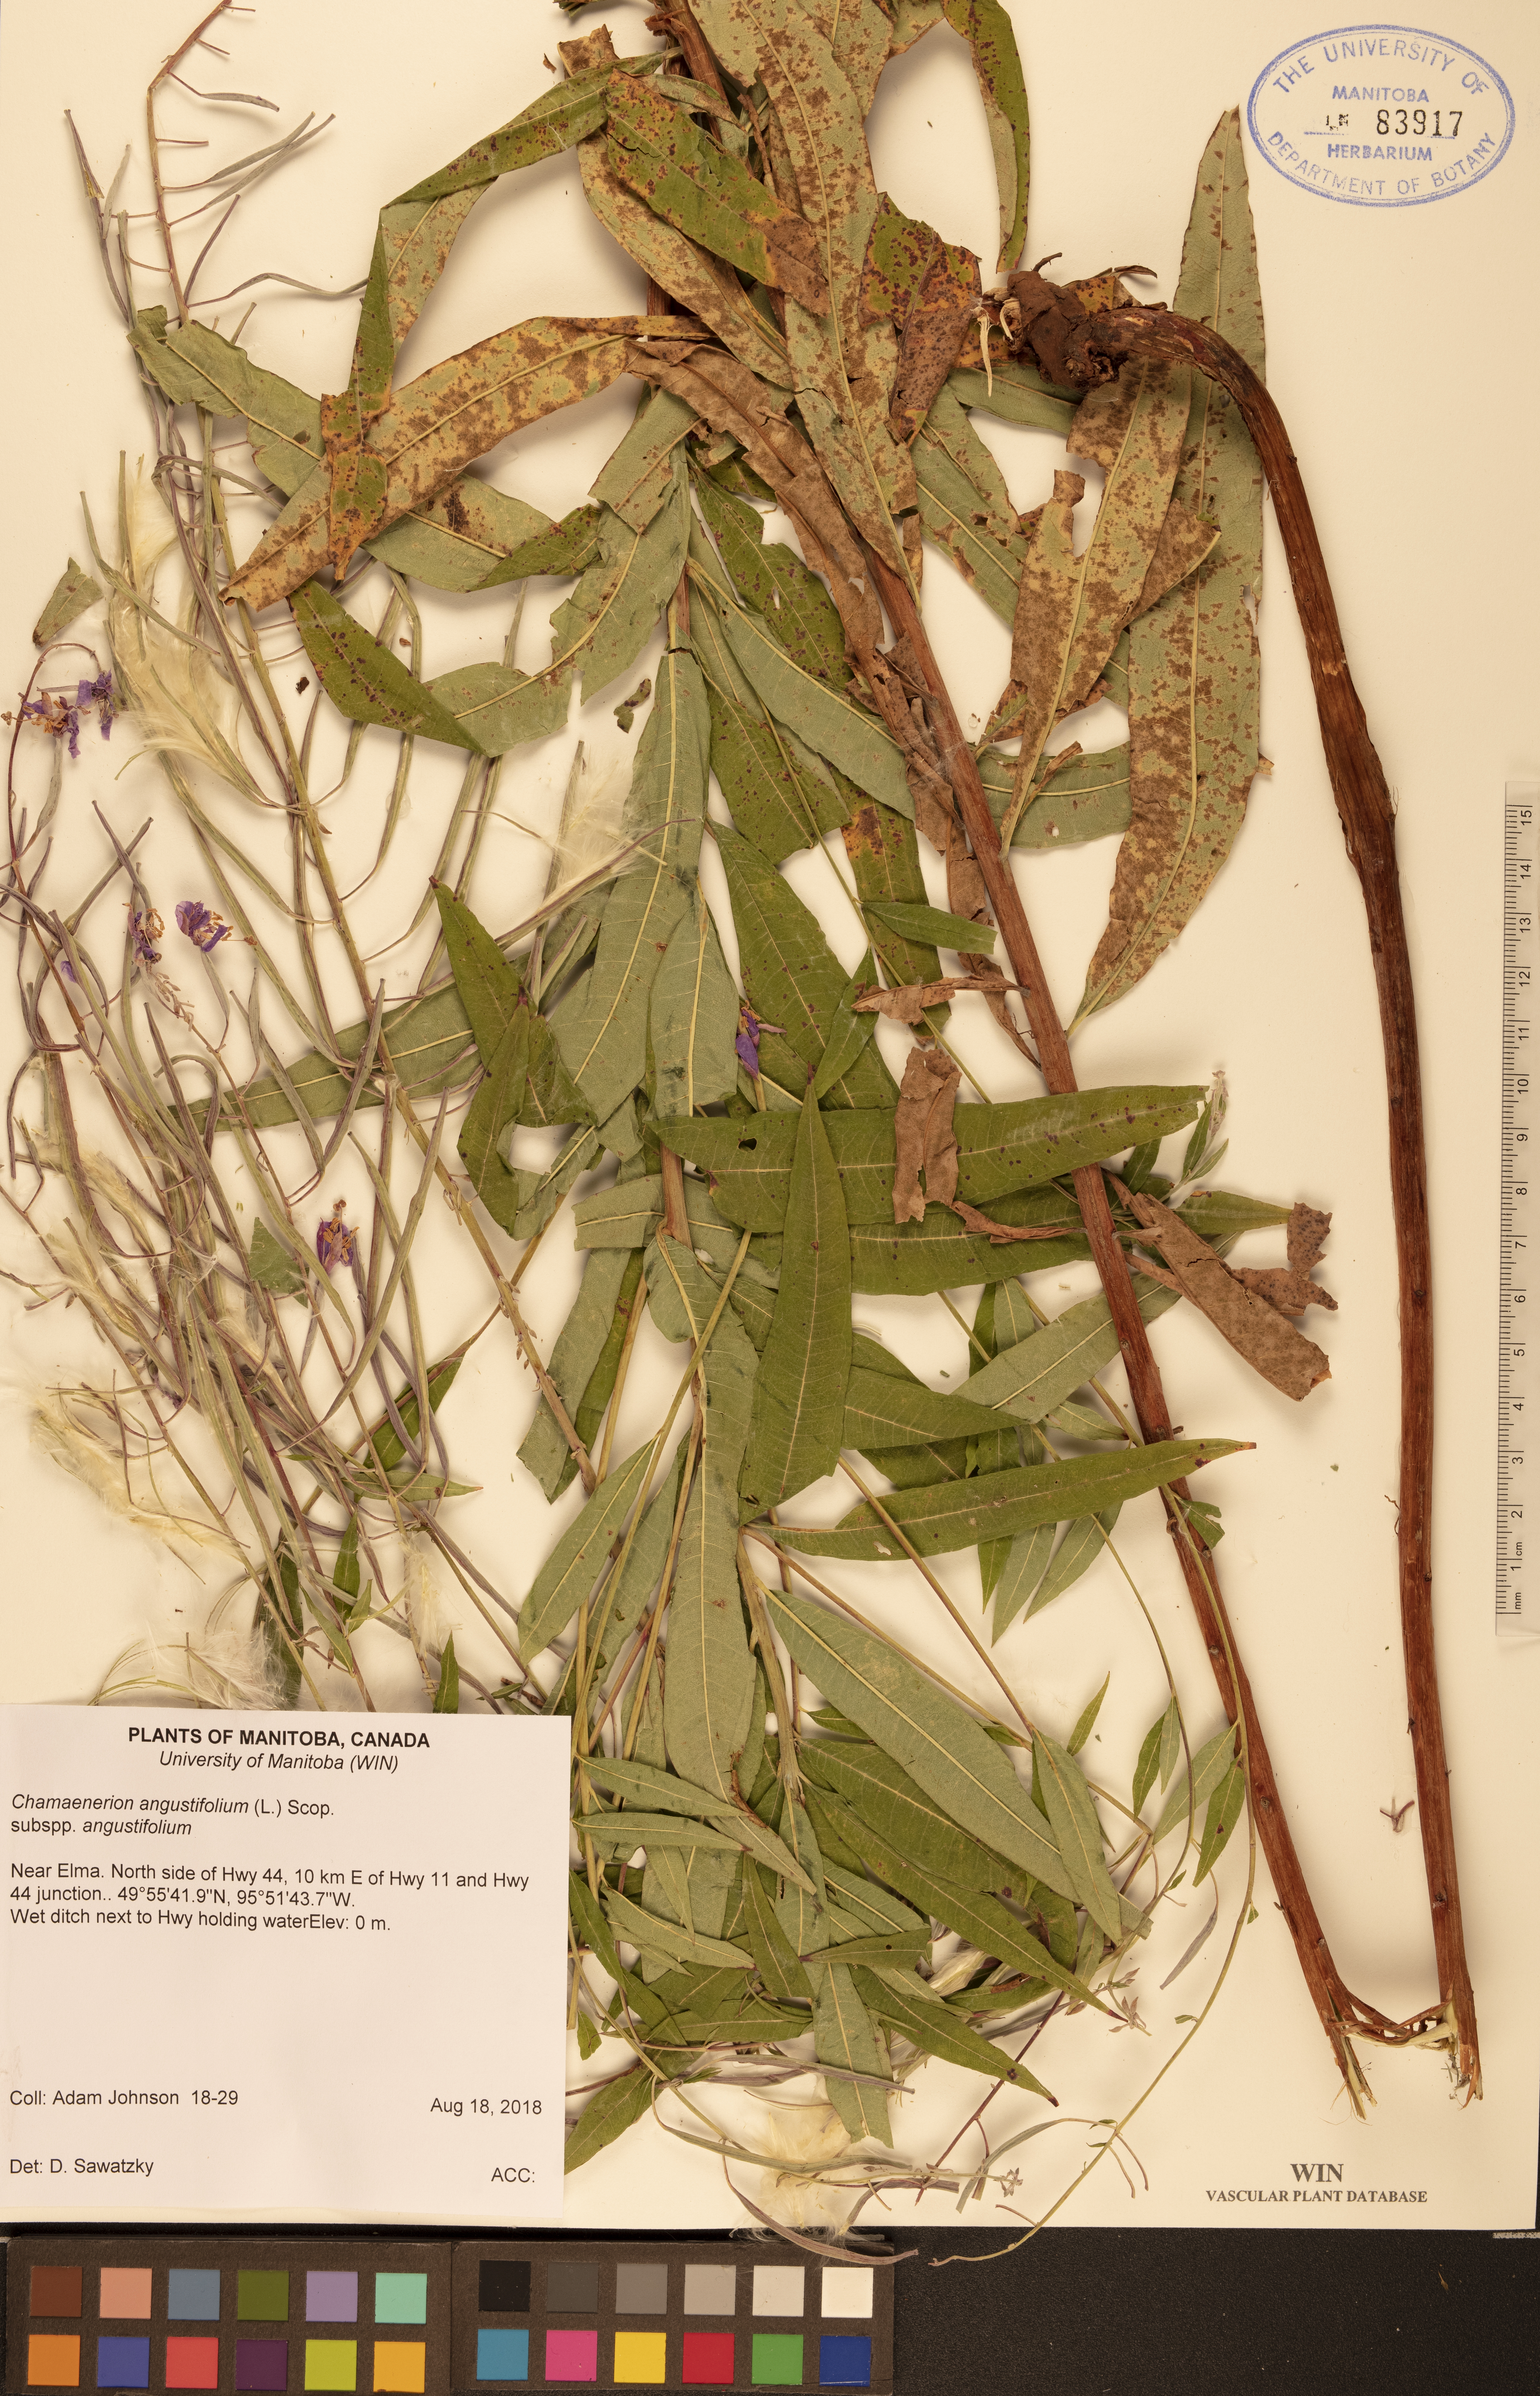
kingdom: Plantae
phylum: Tracheophyta
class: Magnoliopsida
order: Myrtales
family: Onagraceae
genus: Chamaenerion
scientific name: Chamaenerion angustifolium
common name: Fireweed
